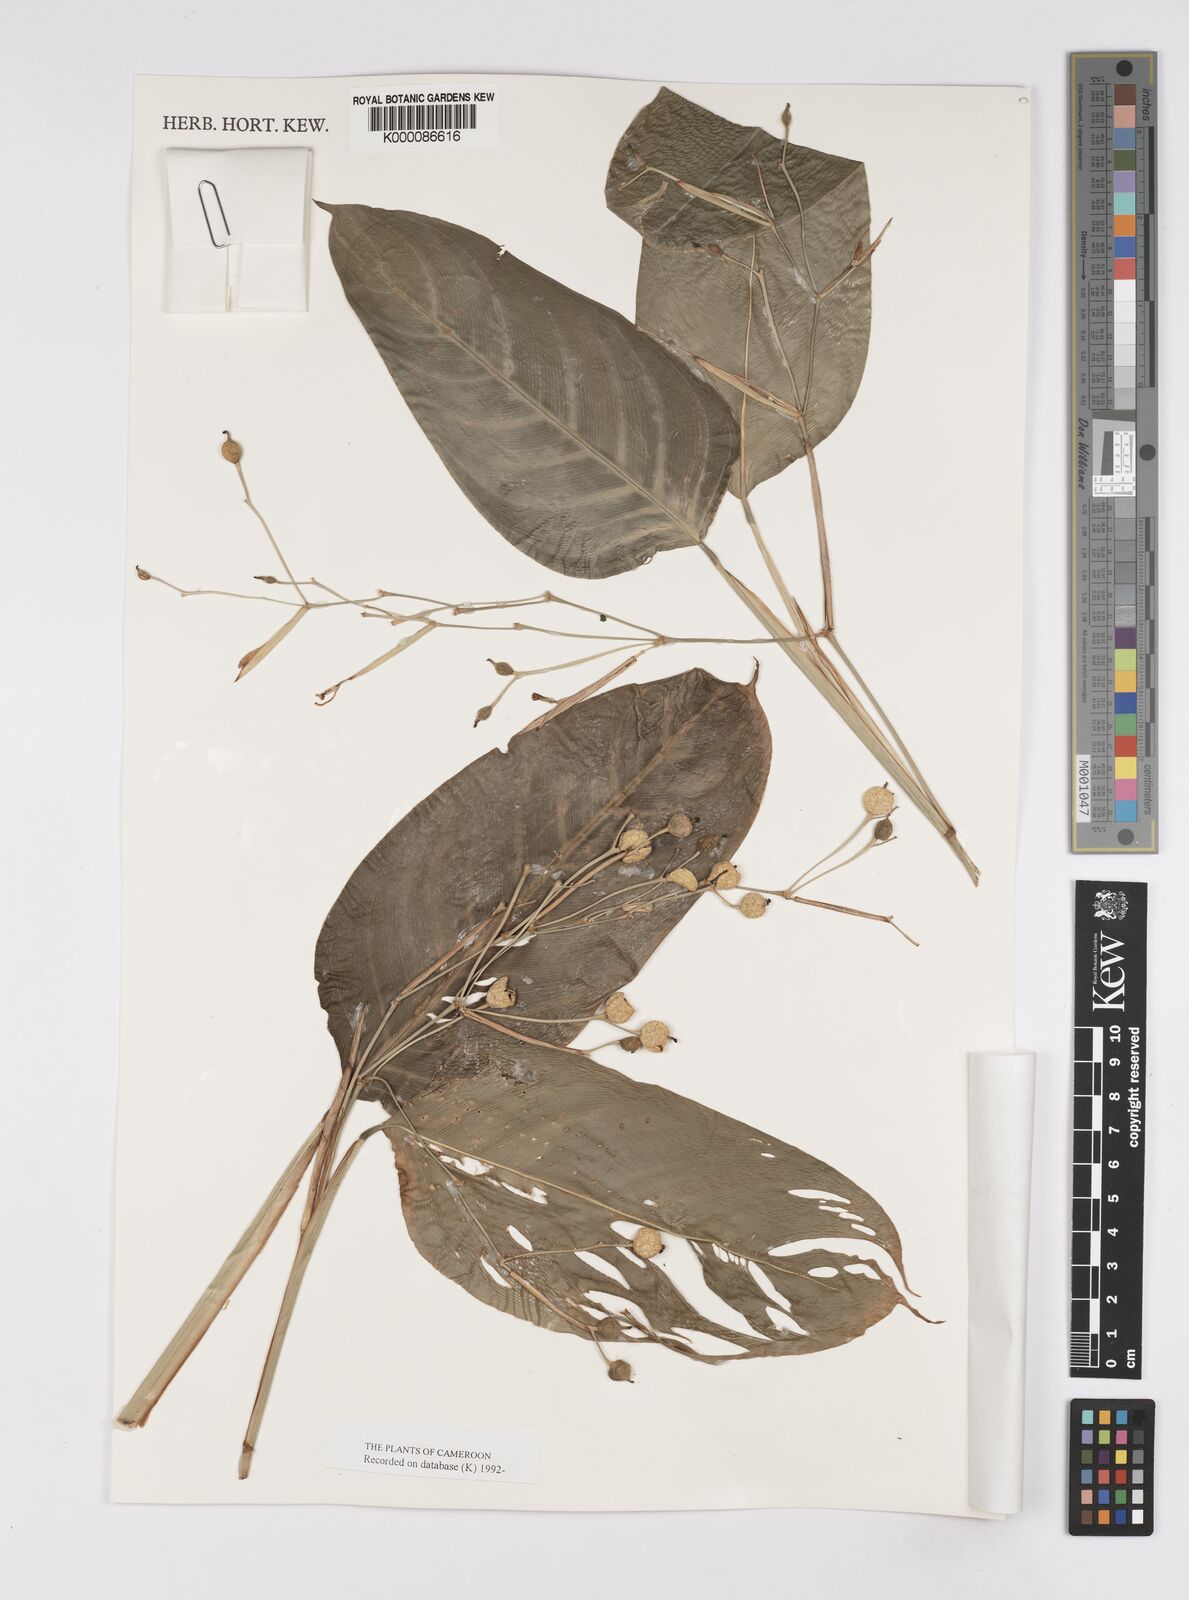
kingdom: Plantae
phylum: Tracheophyta
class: Liliopsida
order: Zingiberales
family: Marantaceae
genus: Marantochloa
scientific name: Marantochloa leucantha
